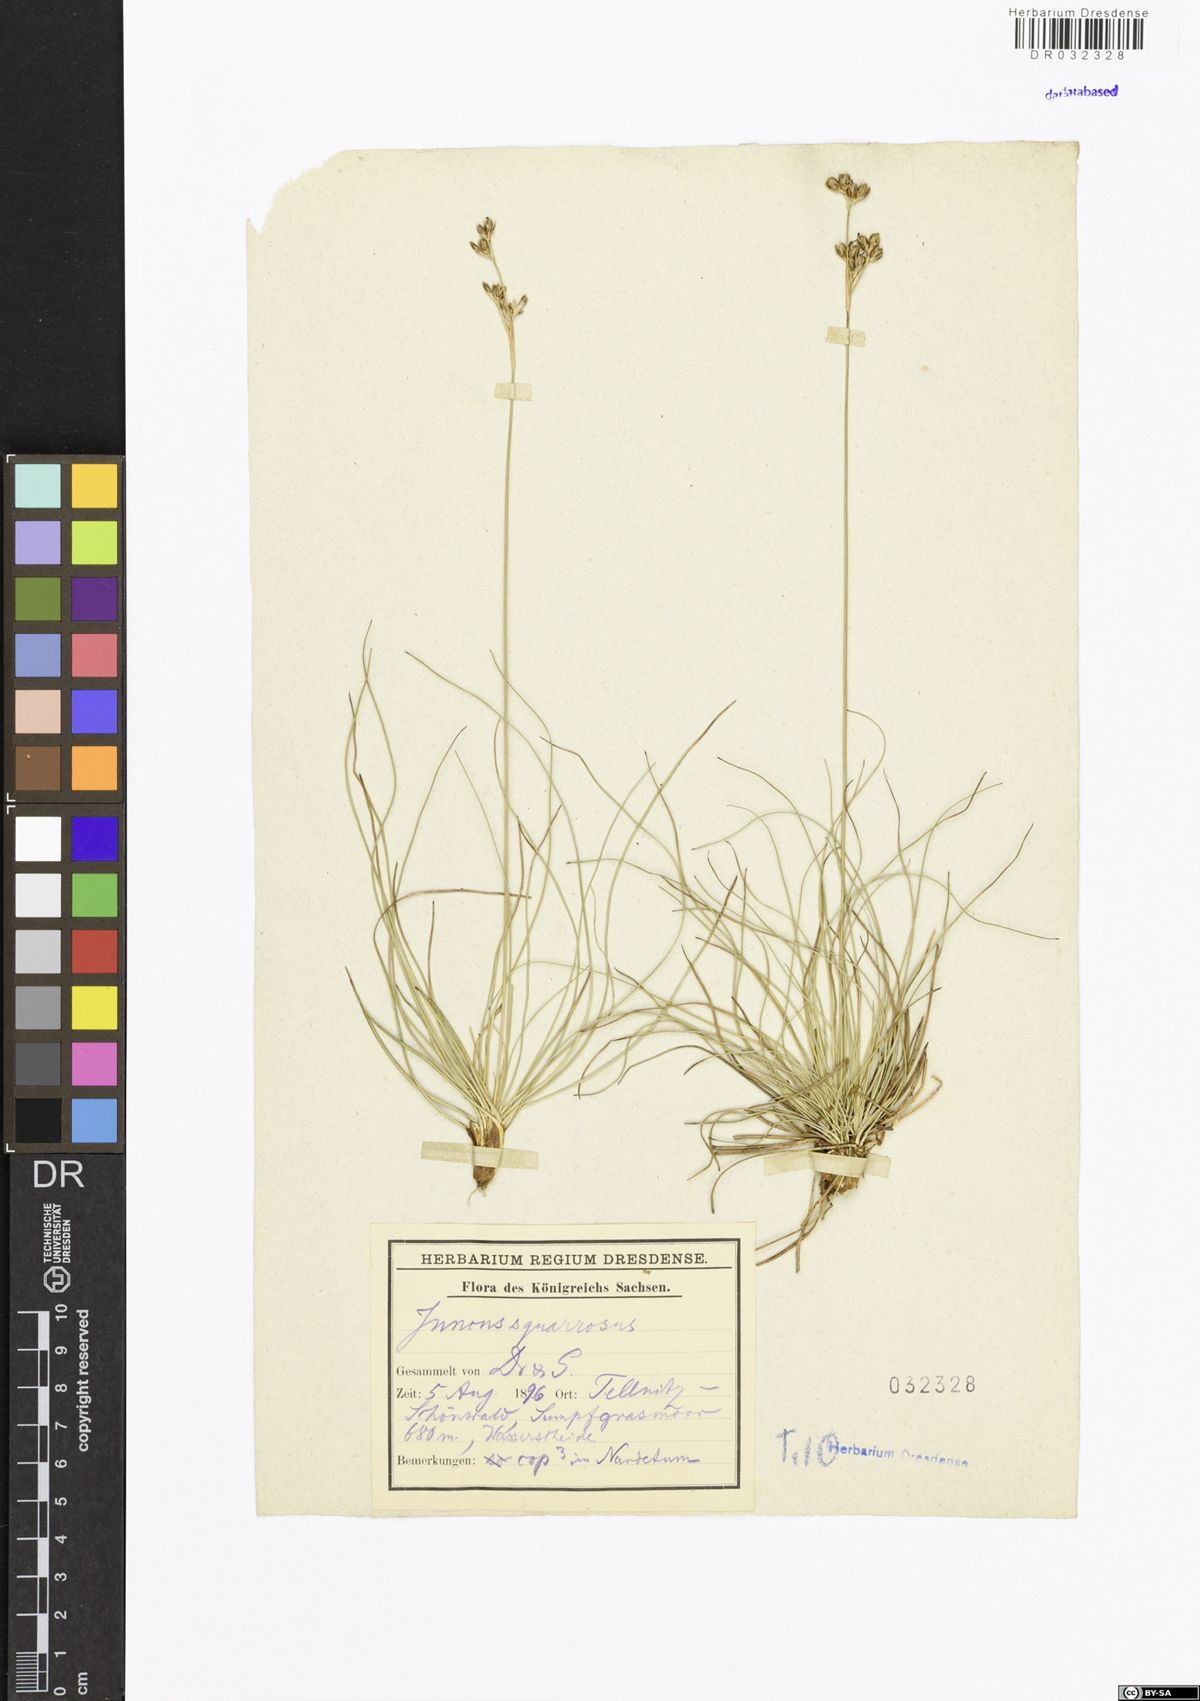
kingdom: Plantae
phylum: Tracheophyta
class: Liliopsida
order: Poales
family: Juncaceae
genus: Juncus
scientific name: Juncus squarrosus
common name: Heath rush
